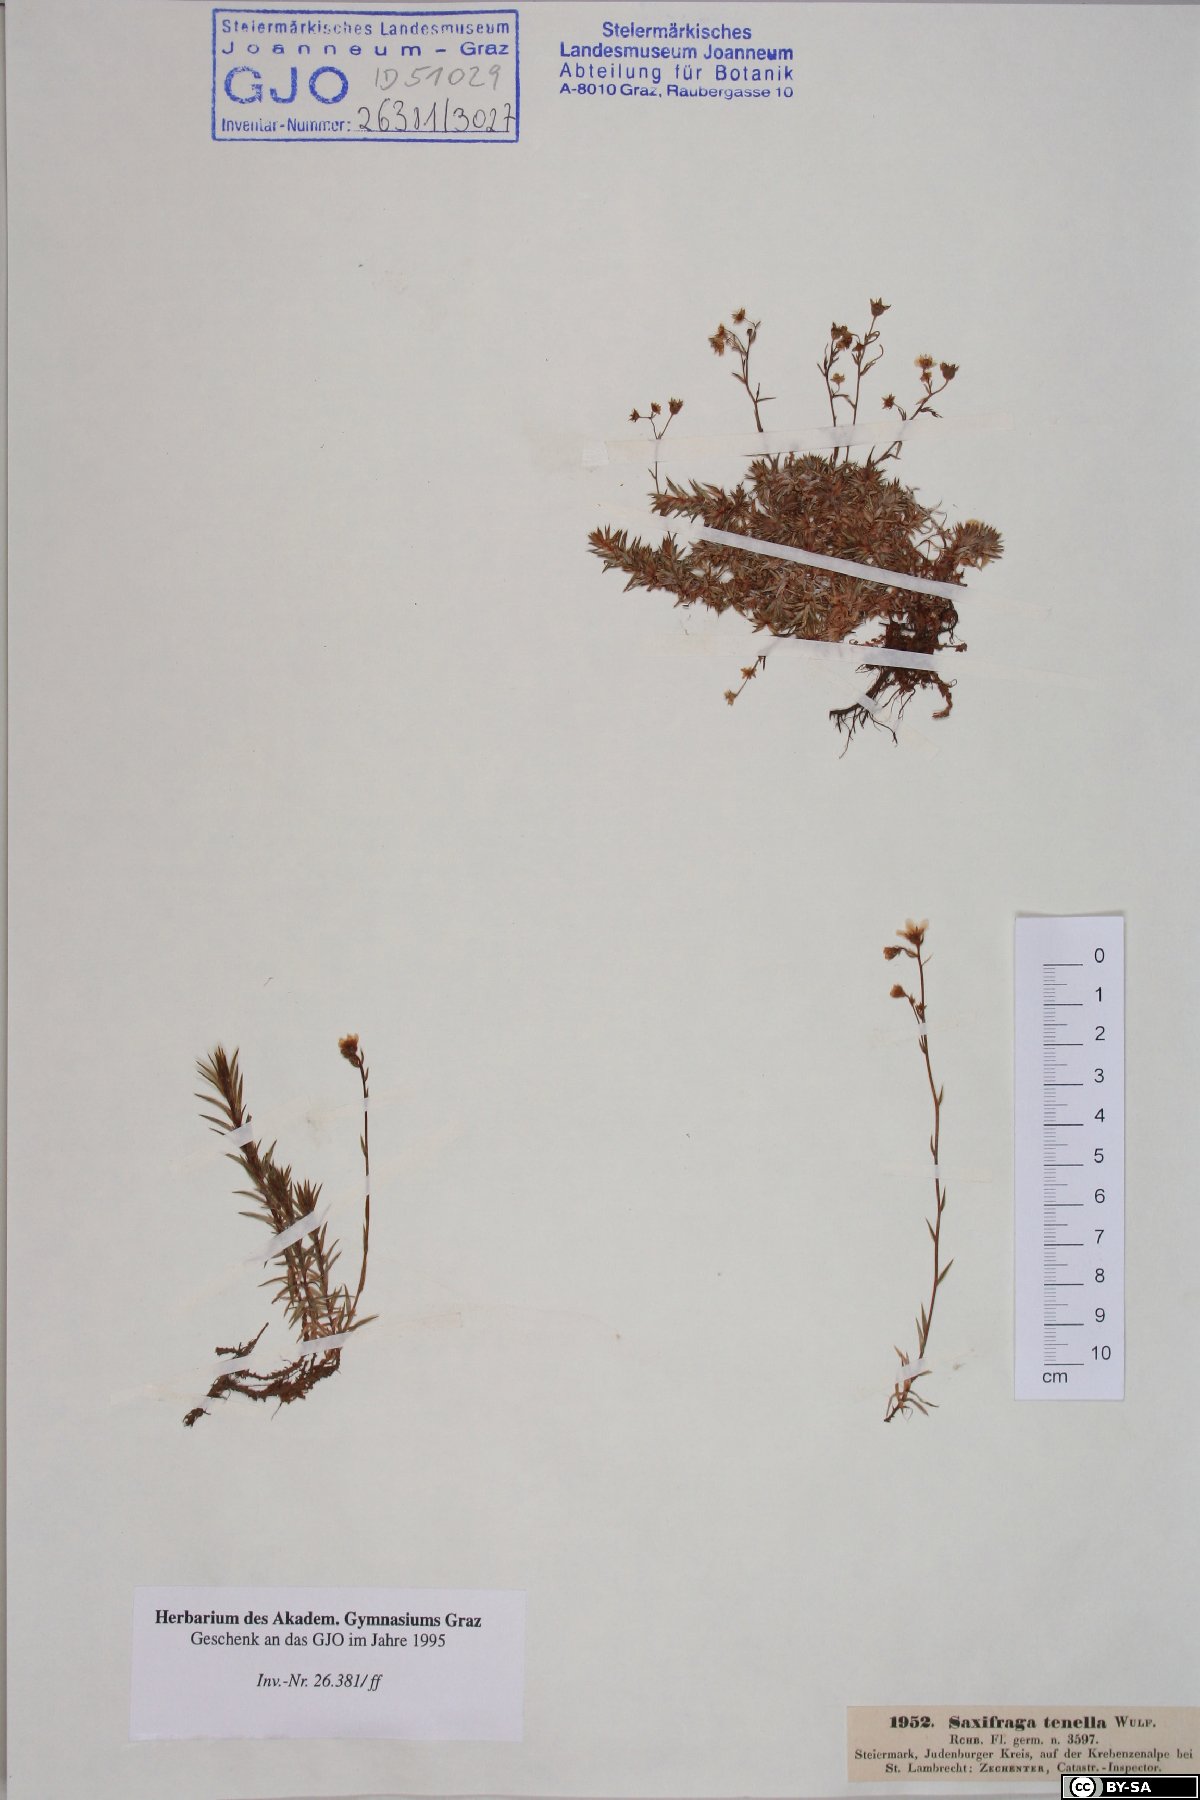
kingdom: Plantae
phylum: Tracheophyta
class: Magnoliopsida
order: Saxifragales
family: Saxifragaceae
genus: Saxifraga
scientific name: Saxifraga tenella
